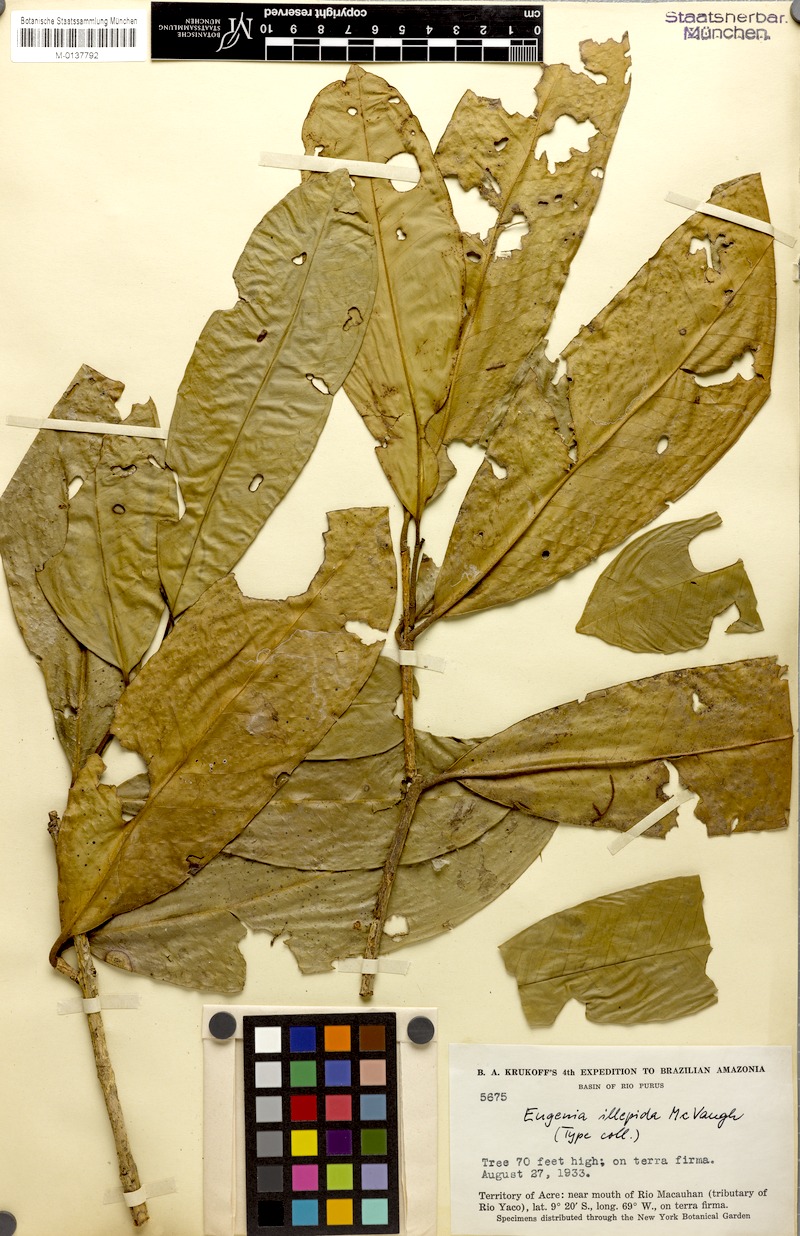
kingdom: Plantae
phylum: Tracheophyta
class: Magnoliopsida
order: Myrtales
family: Myrtaceae
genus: Eugenia
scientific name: Eugenia illepida
